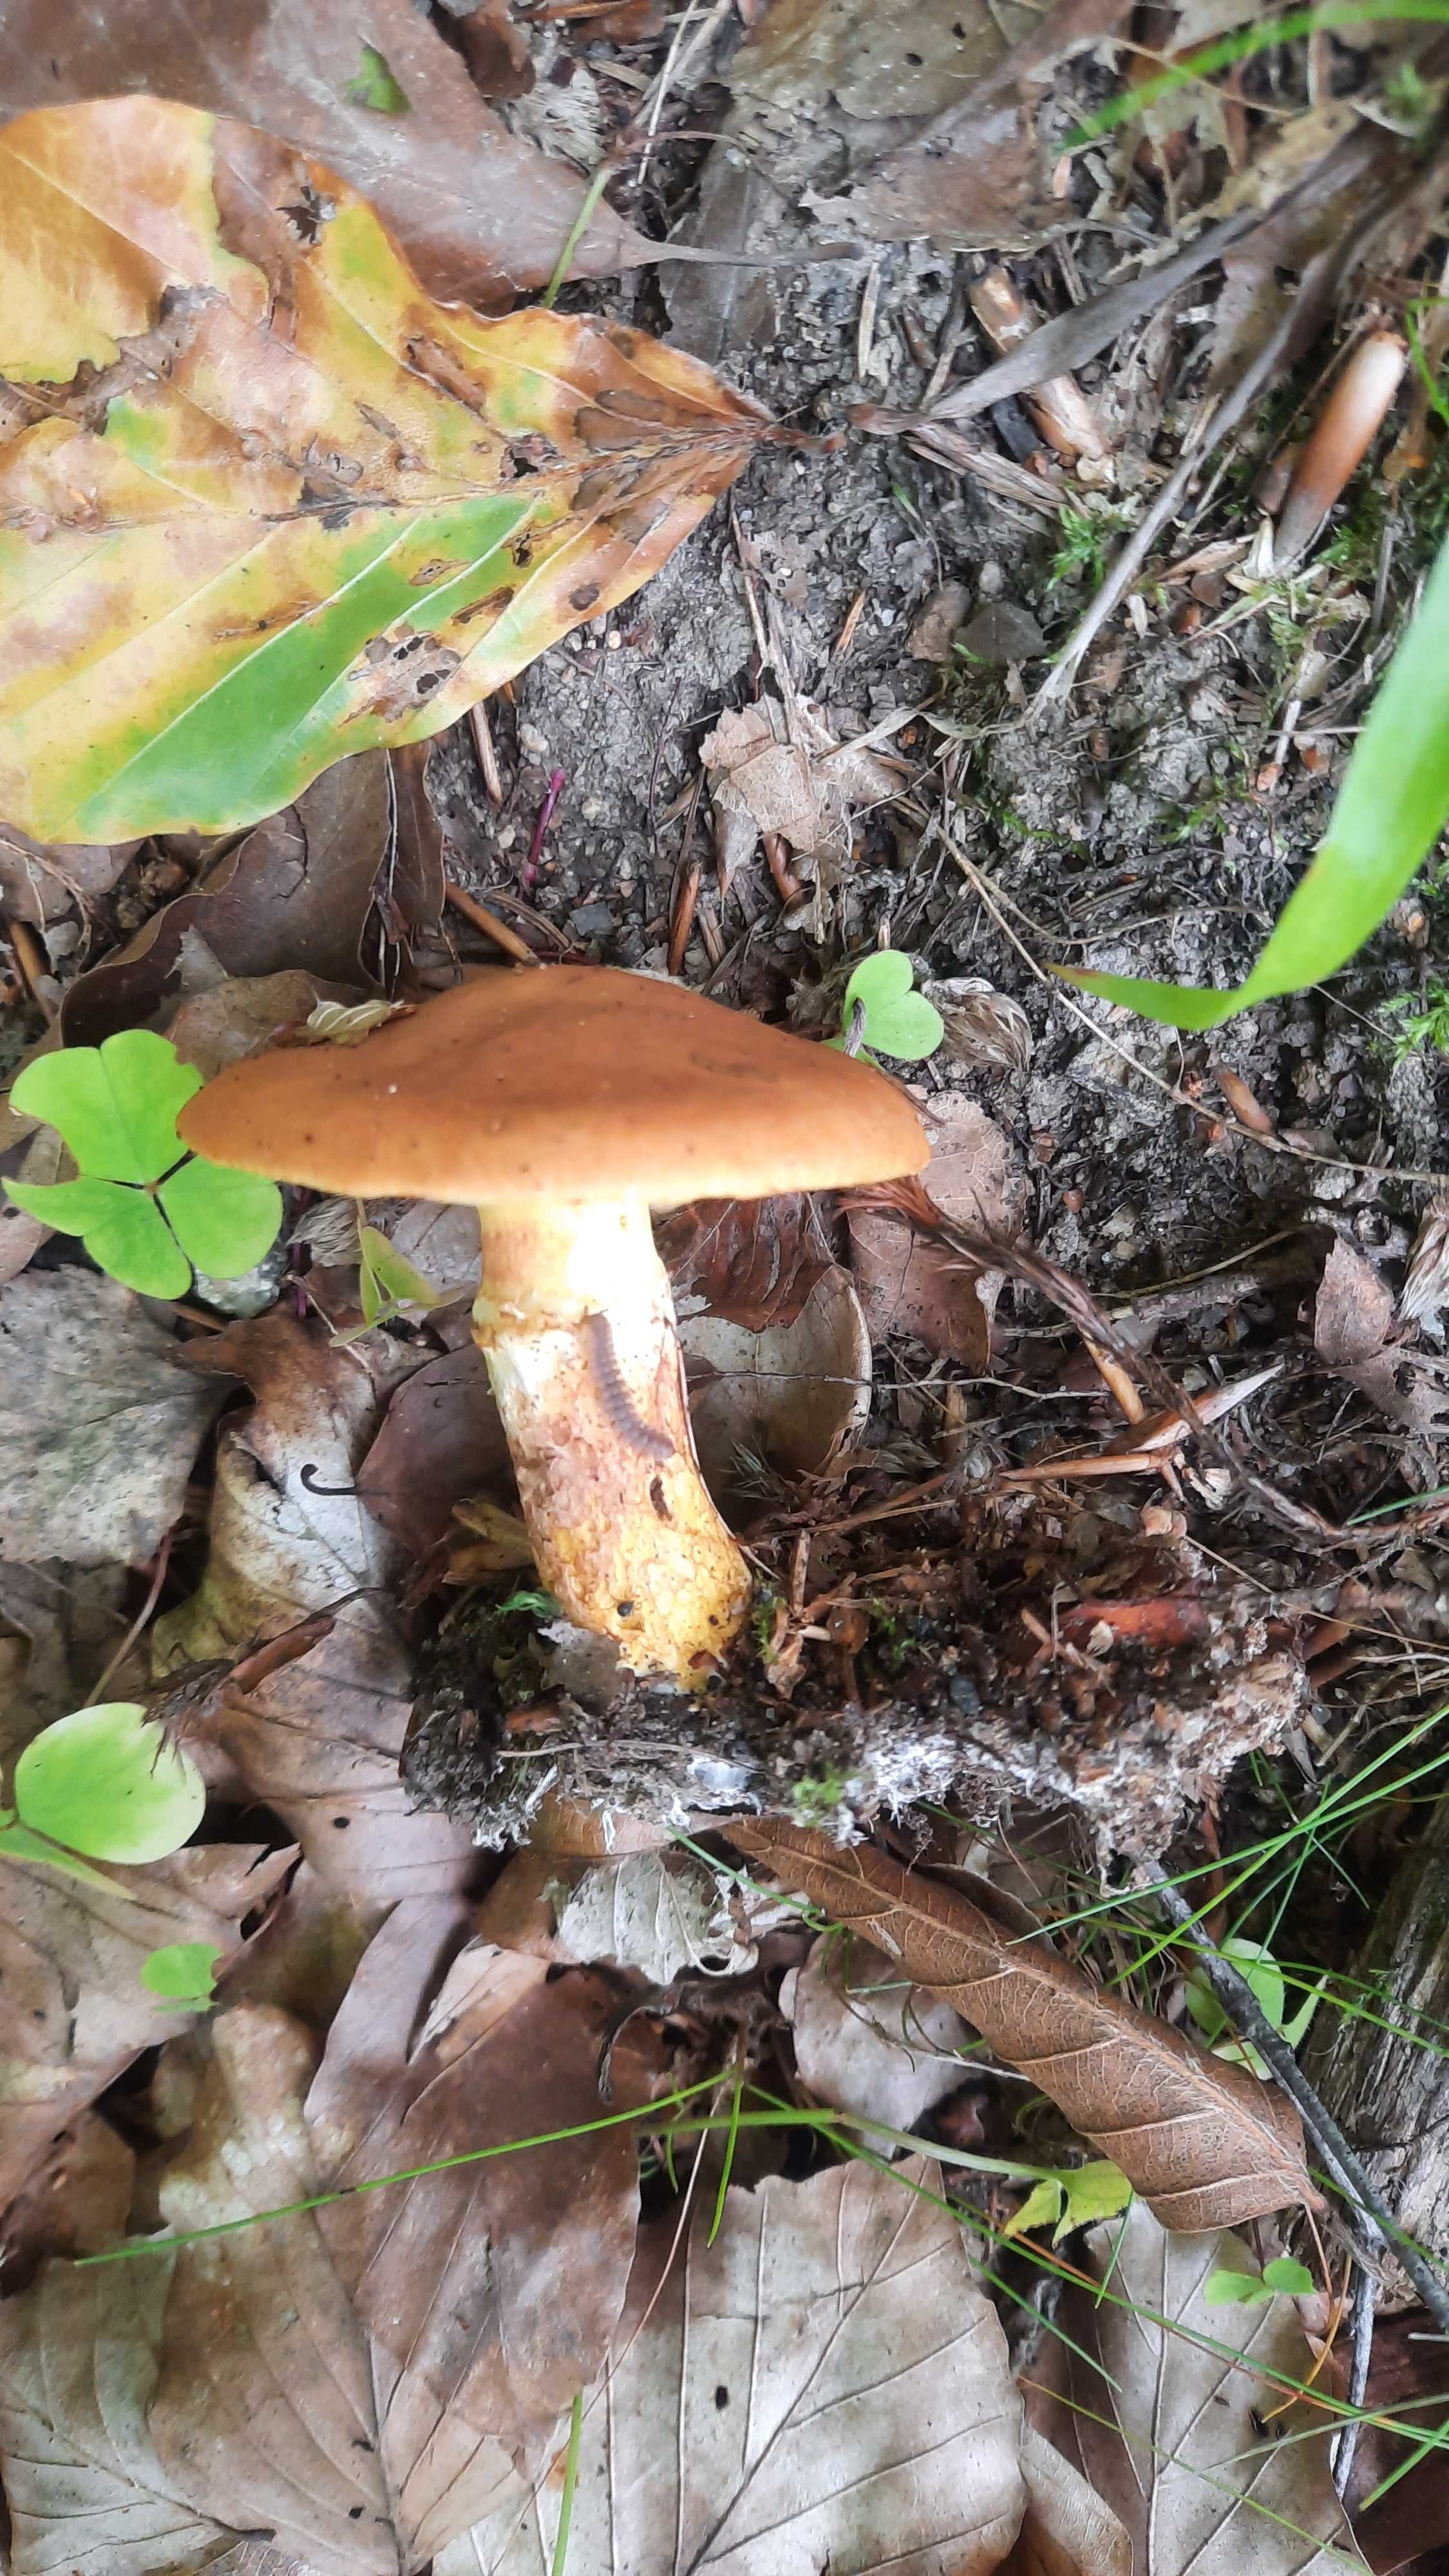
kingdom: Fungi
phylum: Basidiomycota
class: Agaricomycetes
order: Boletales
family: Suillaceae
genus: Suillus
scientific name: Suillus grevillei
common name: lærke-slimrørhat
